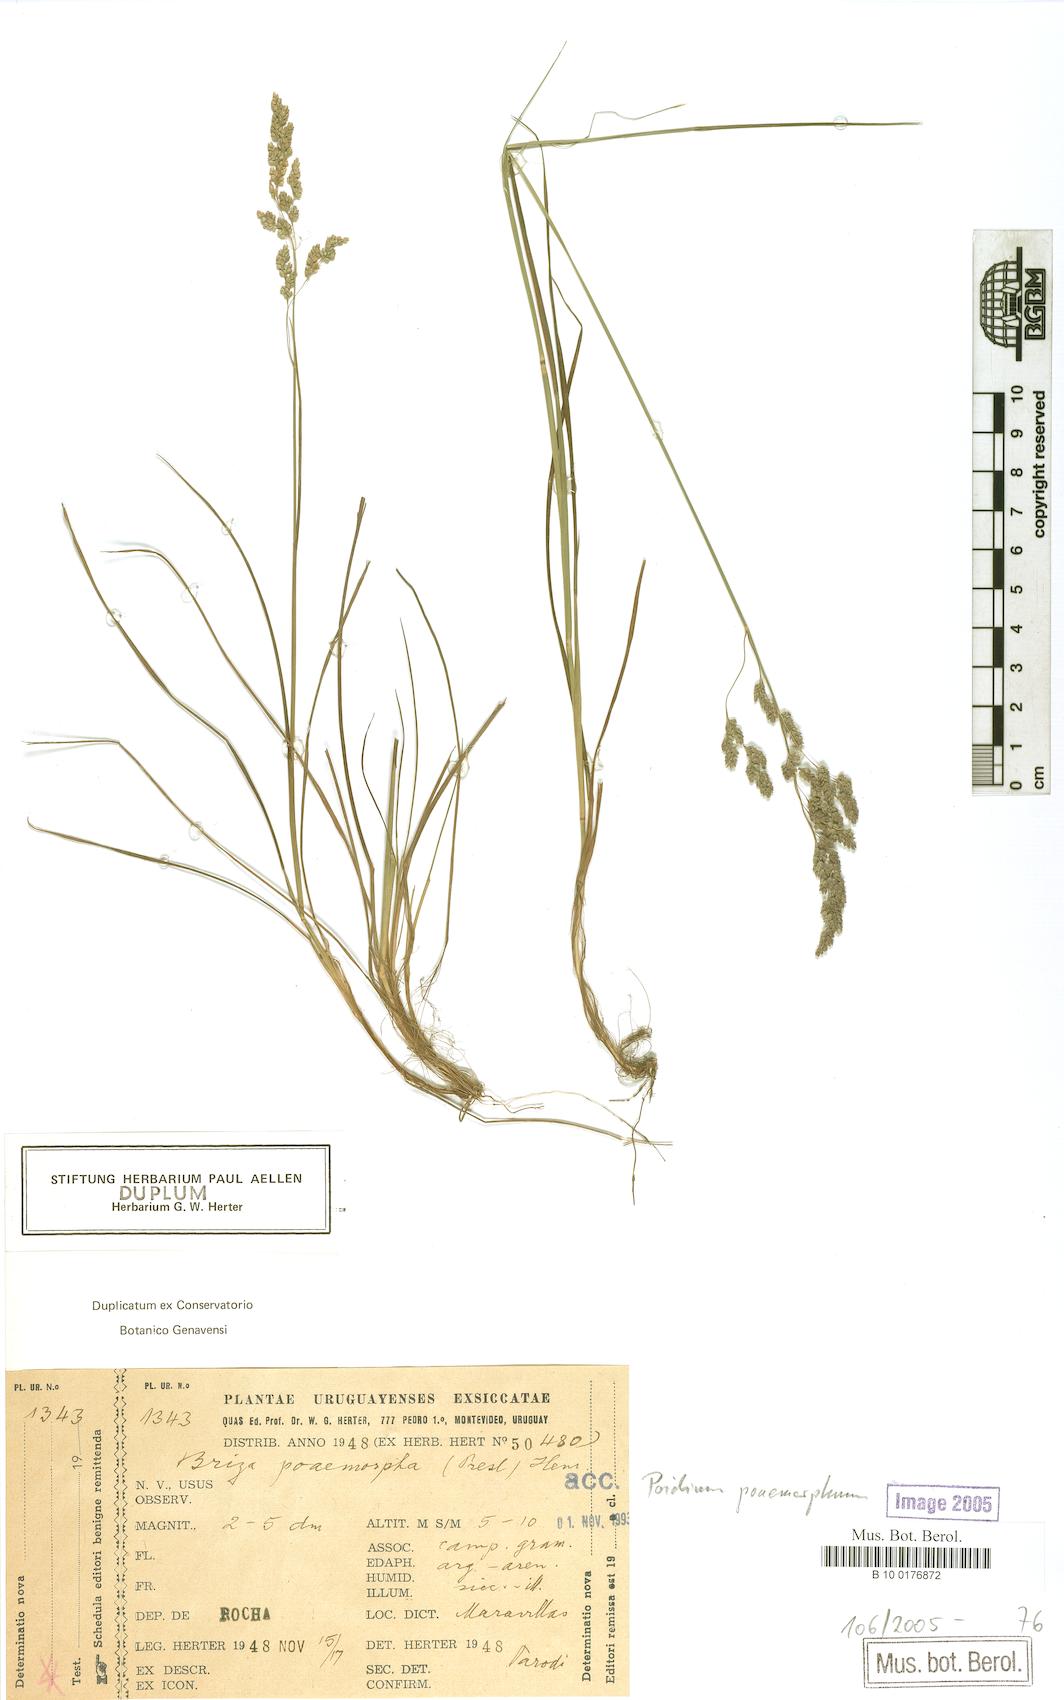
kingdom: Plantae
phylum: Tracheophyta
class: Liliopsida
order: Poales
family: Poaceae
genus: Chascolytrum
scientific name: Chascolytrum poomorphum
